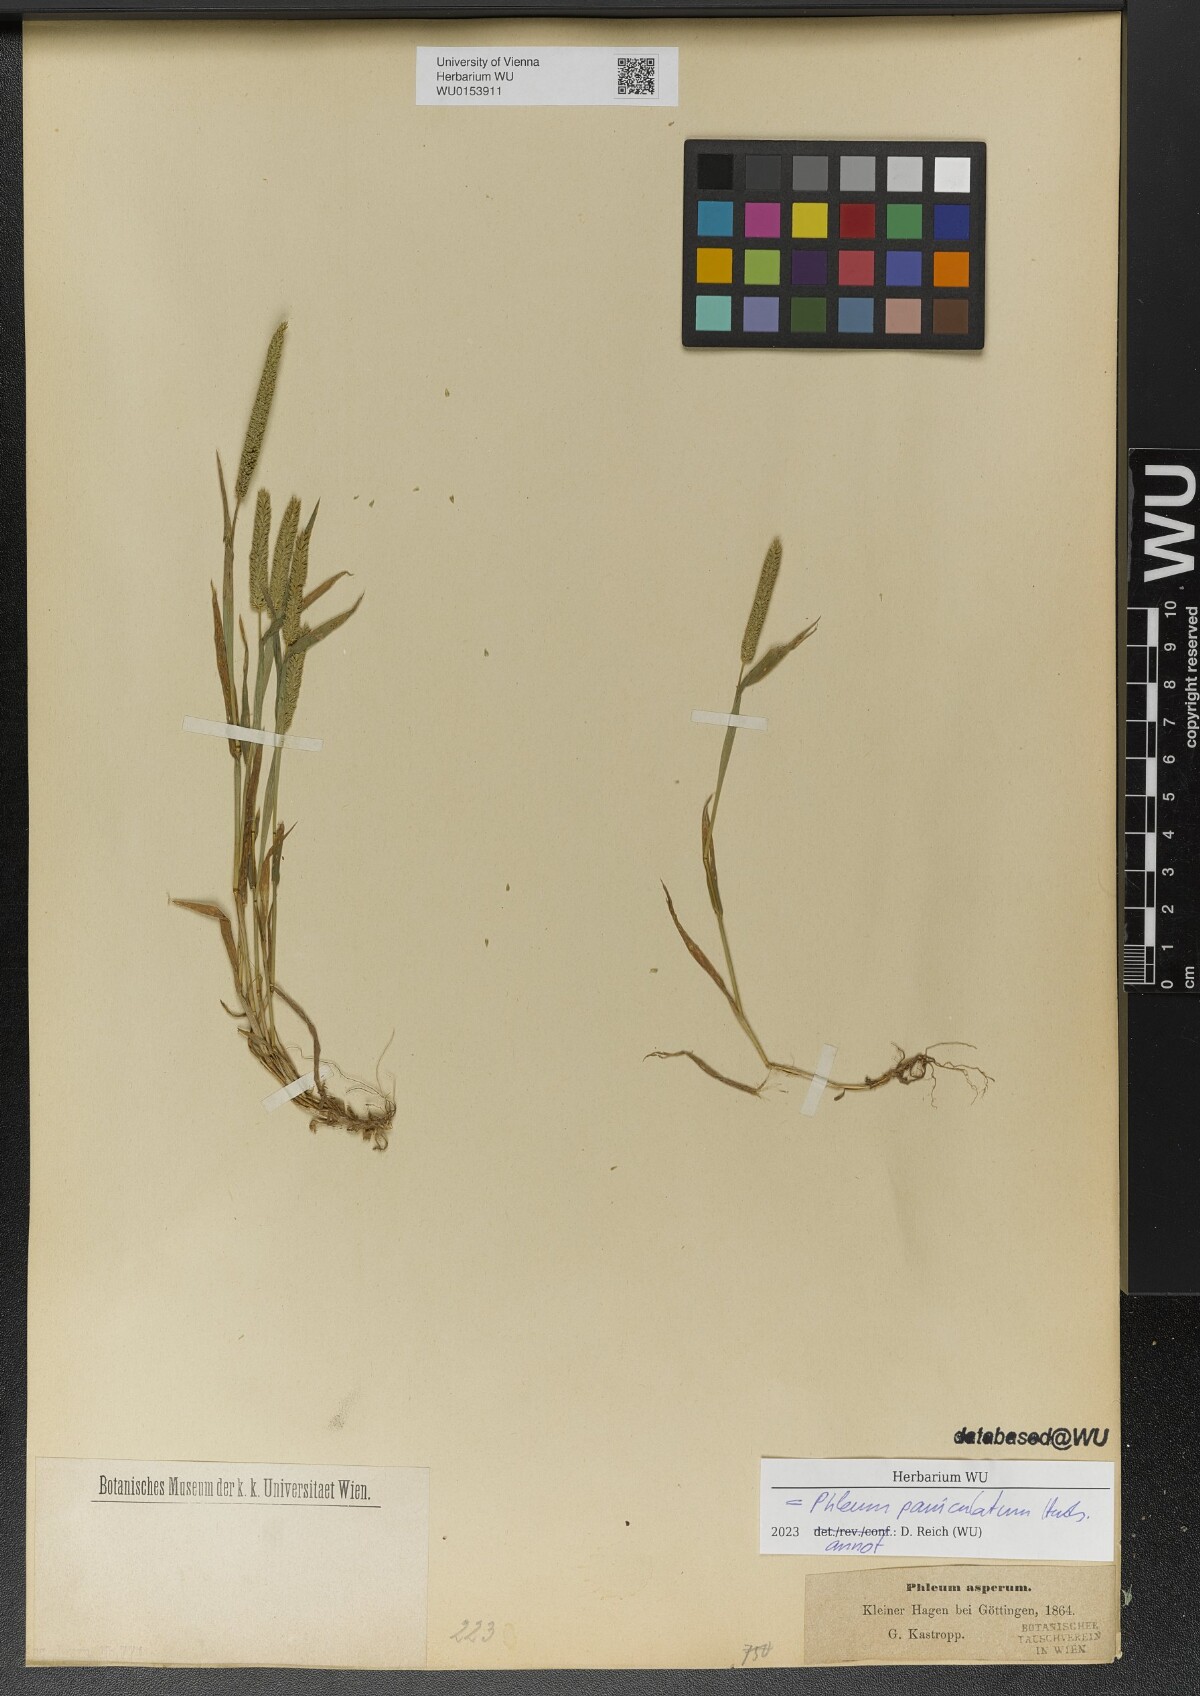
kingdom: Plantae
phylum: Tracheophyta
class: Liliopsida
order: Poales
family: Poaceae
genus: Phleum
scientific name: Phleum paniculatum
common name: British timothy
